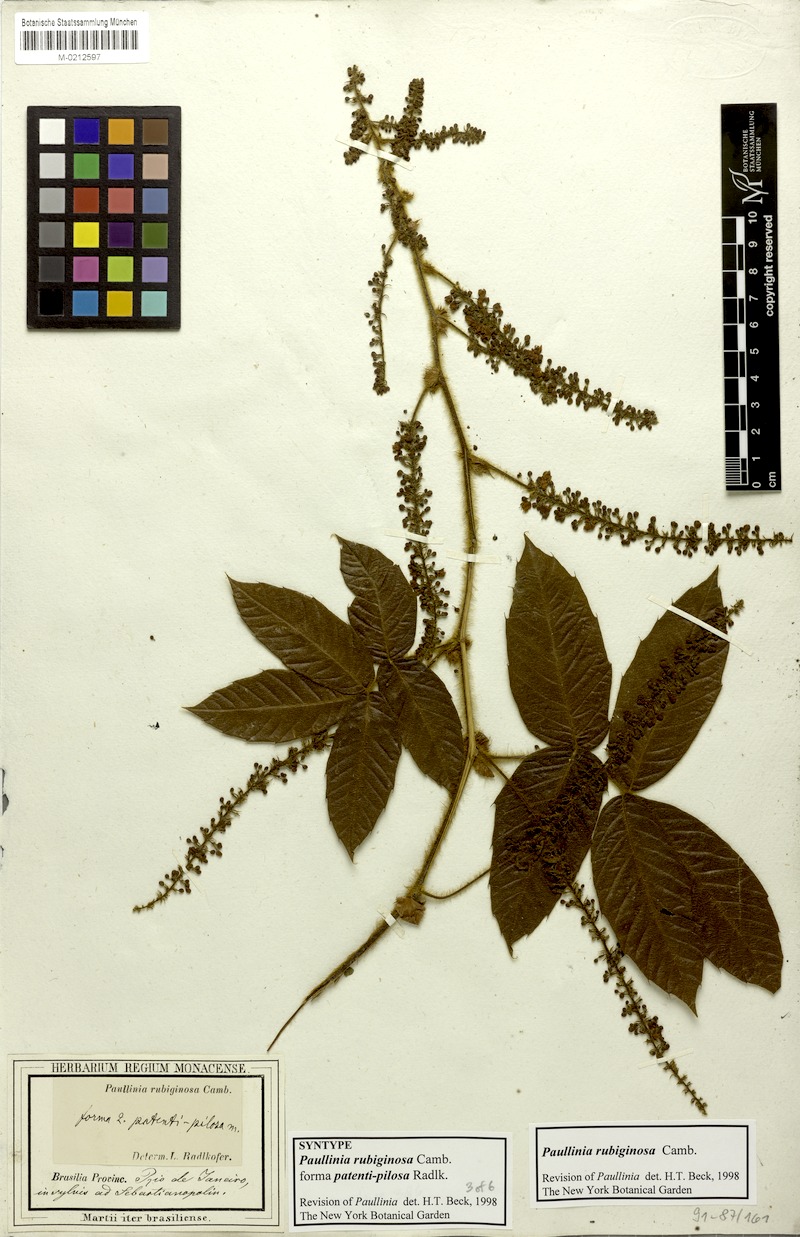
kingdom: Plantae
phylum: Tracheophyta
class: Magnoliopsida
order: Sapindales
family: Sapindaceae
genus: Paullinia
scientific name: Paullinia rubiginosa
